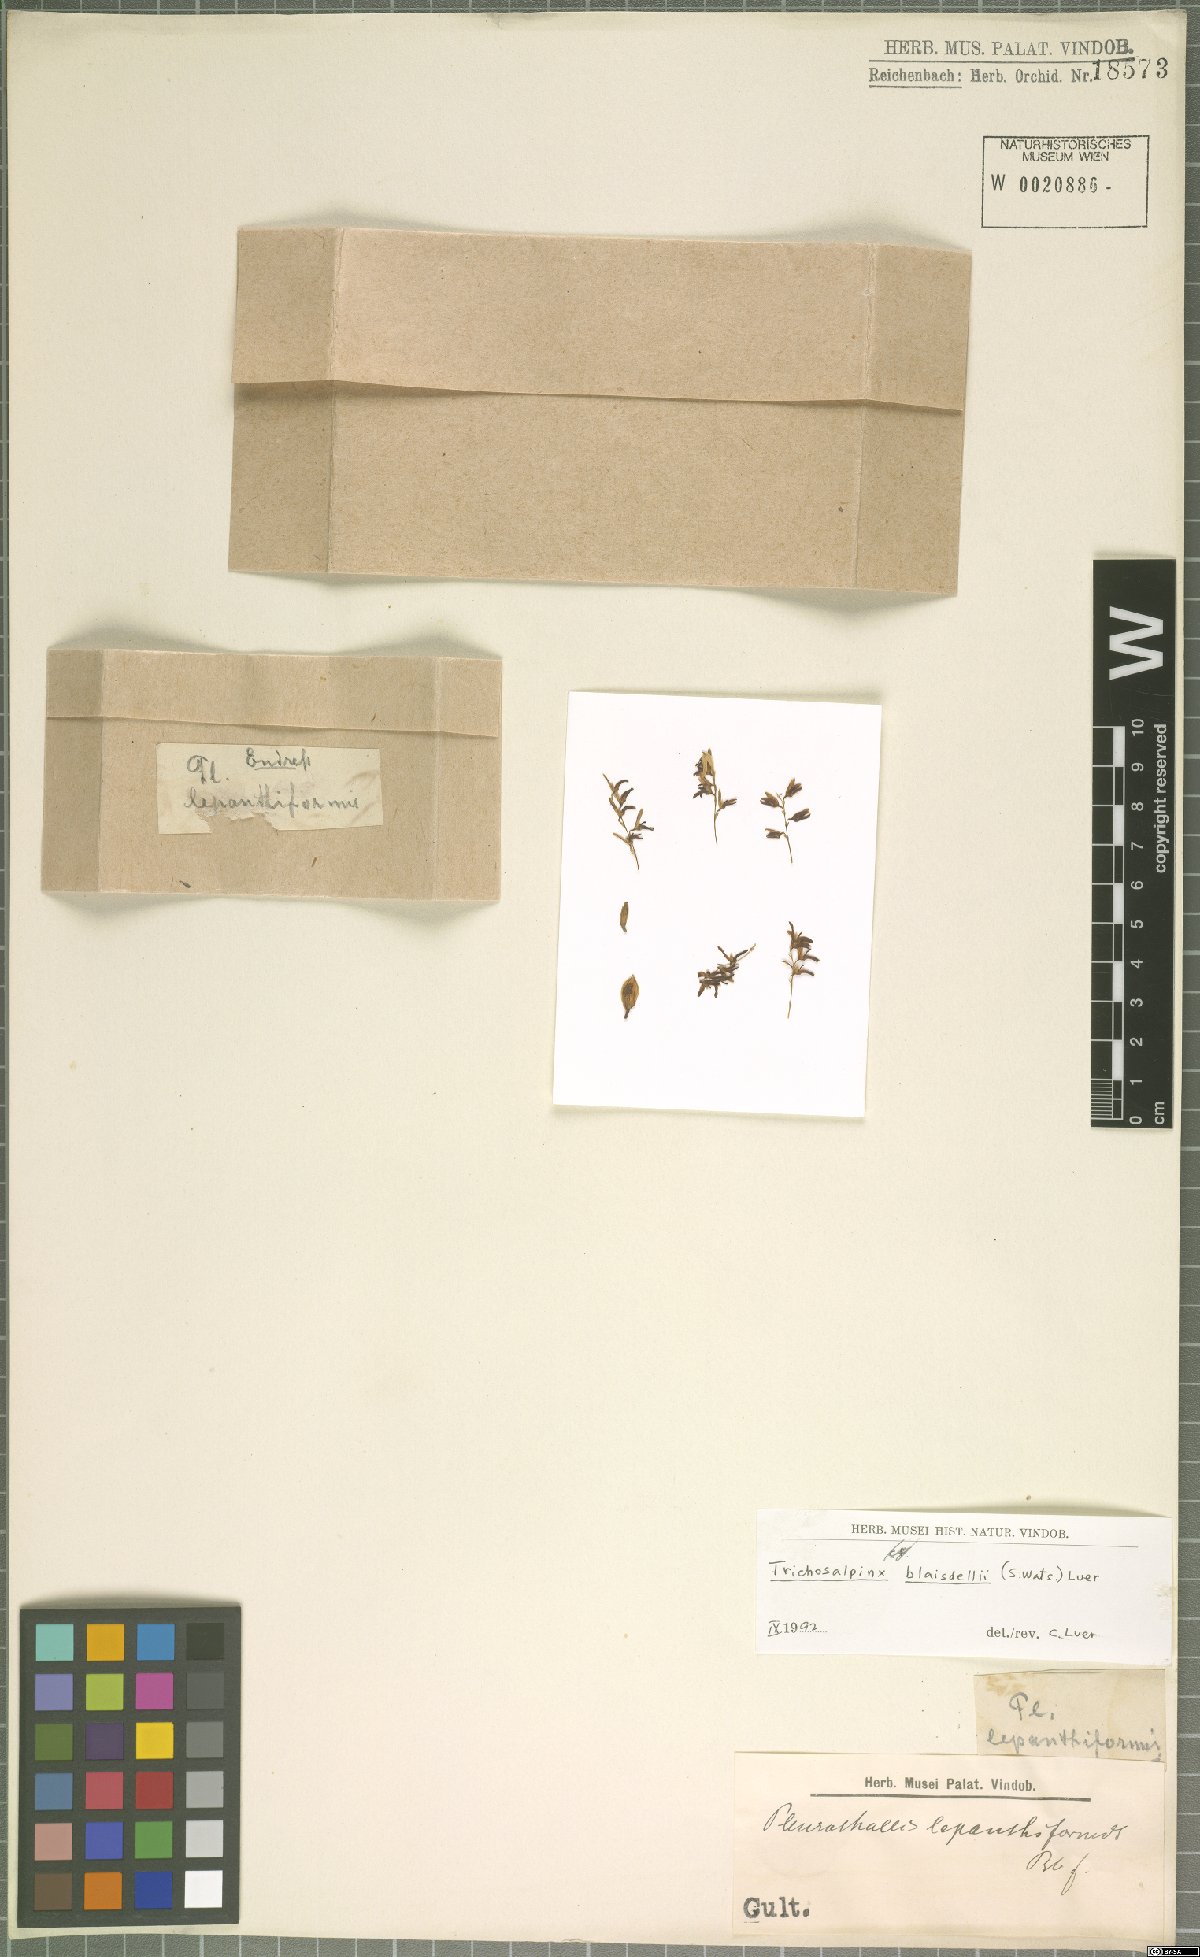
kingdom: Plantae
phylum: Tracheophyta
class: Liliopsida
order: Asparagales
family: Orchidaceae
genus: Trichosalpinx
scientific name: Trichosalpinx blaisdellii
